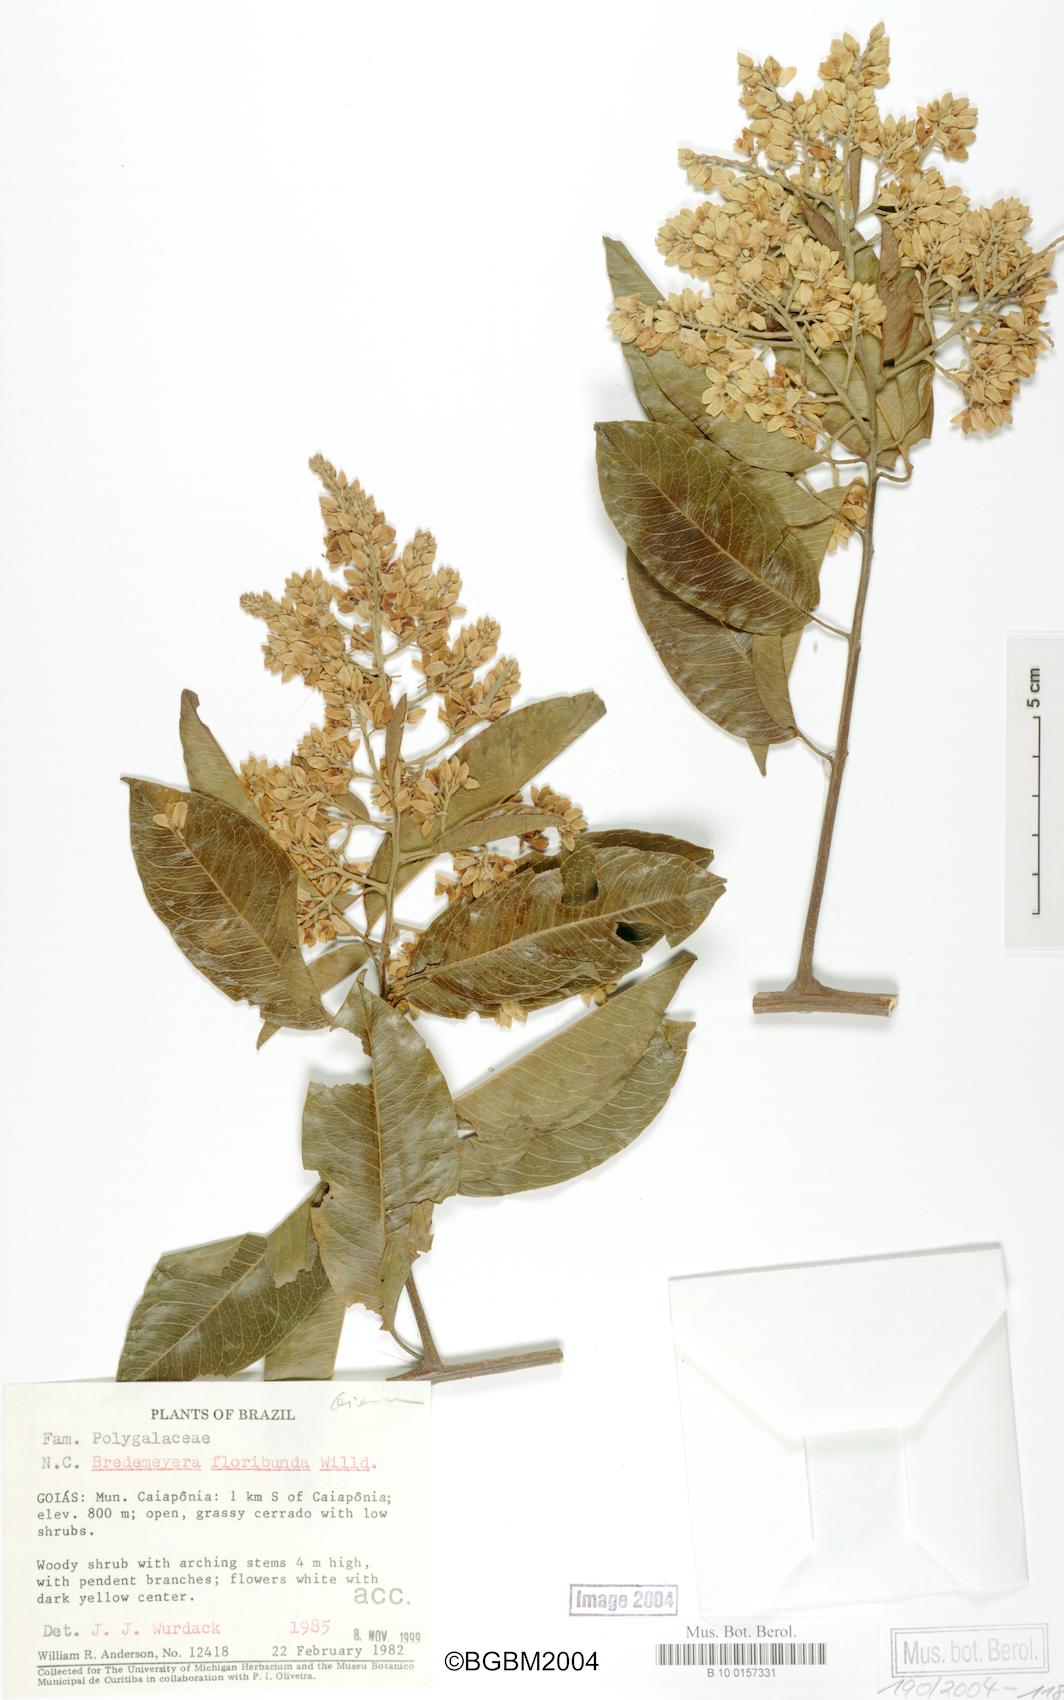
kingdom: Plantae
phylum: Tracheophyta
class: Magnoliopsida
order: Fabales
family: Polygalaceae
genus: Bredemeyera
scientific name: Bredemeyera floribunda
